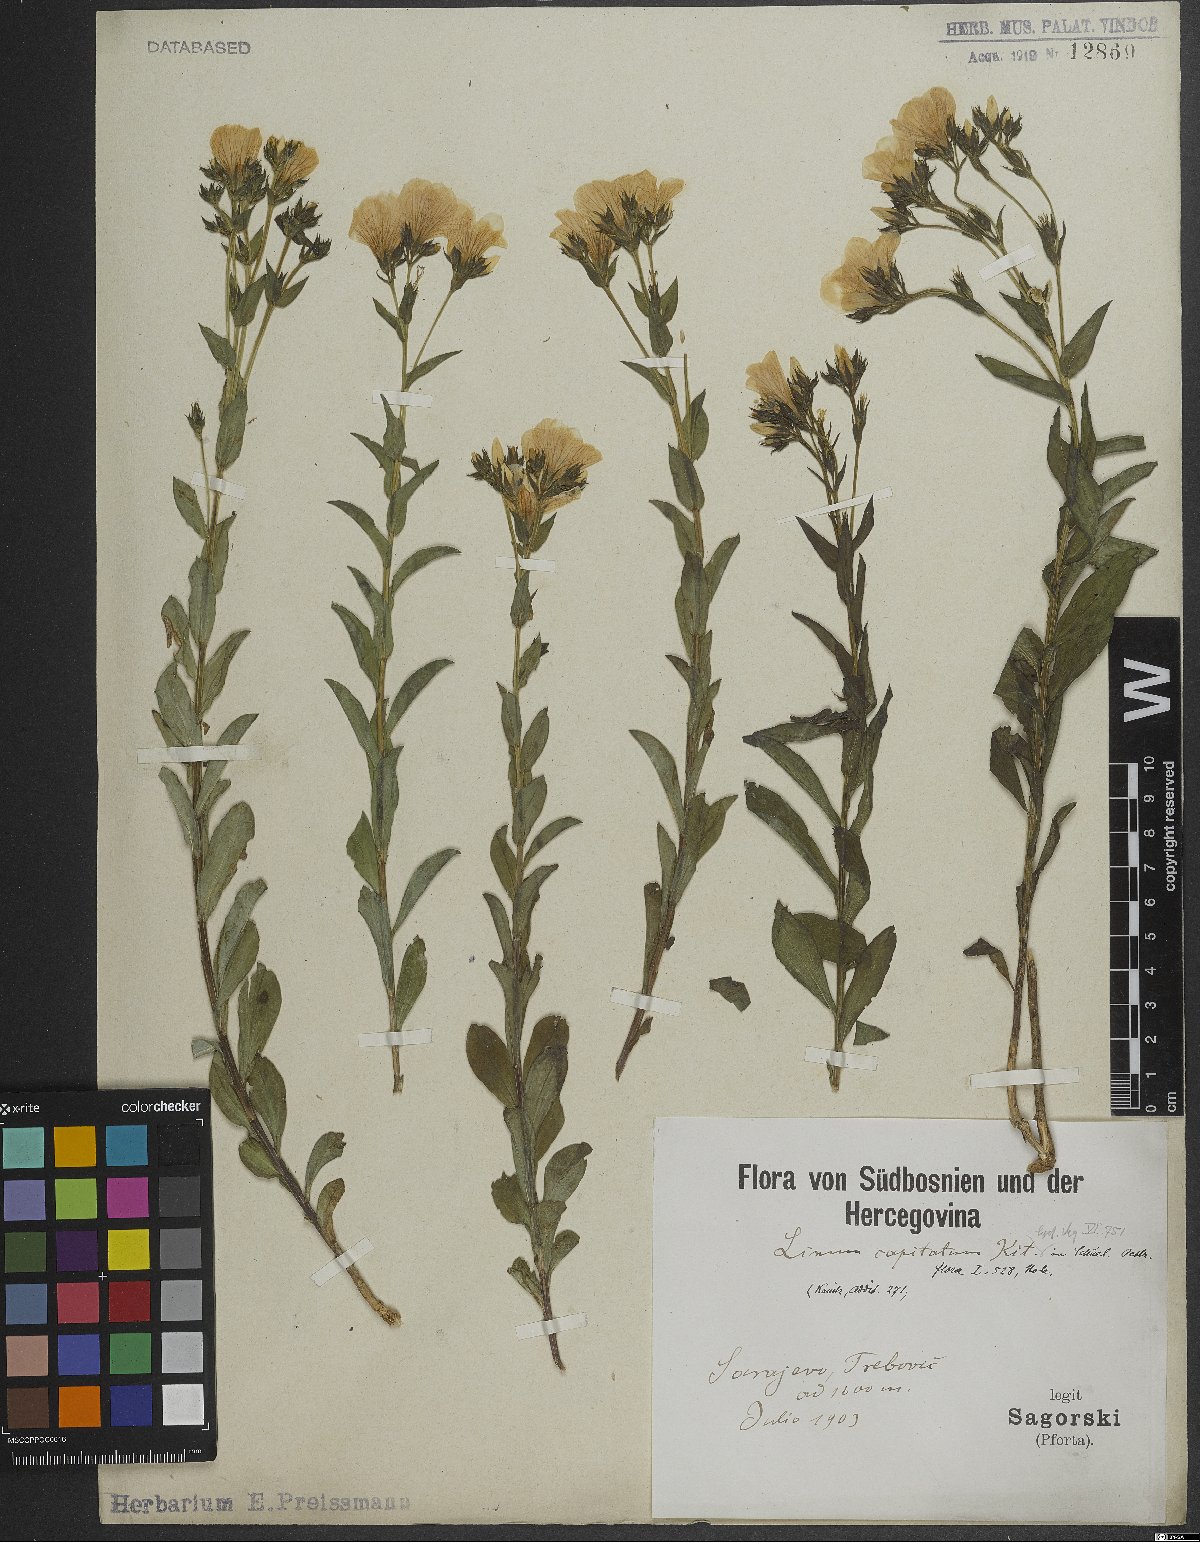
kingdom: Plantae
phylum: Tracheophyta
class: Magnoliopsida
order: Malpighiales
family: Linaceae
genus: Linum
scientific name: Linum capitatum
